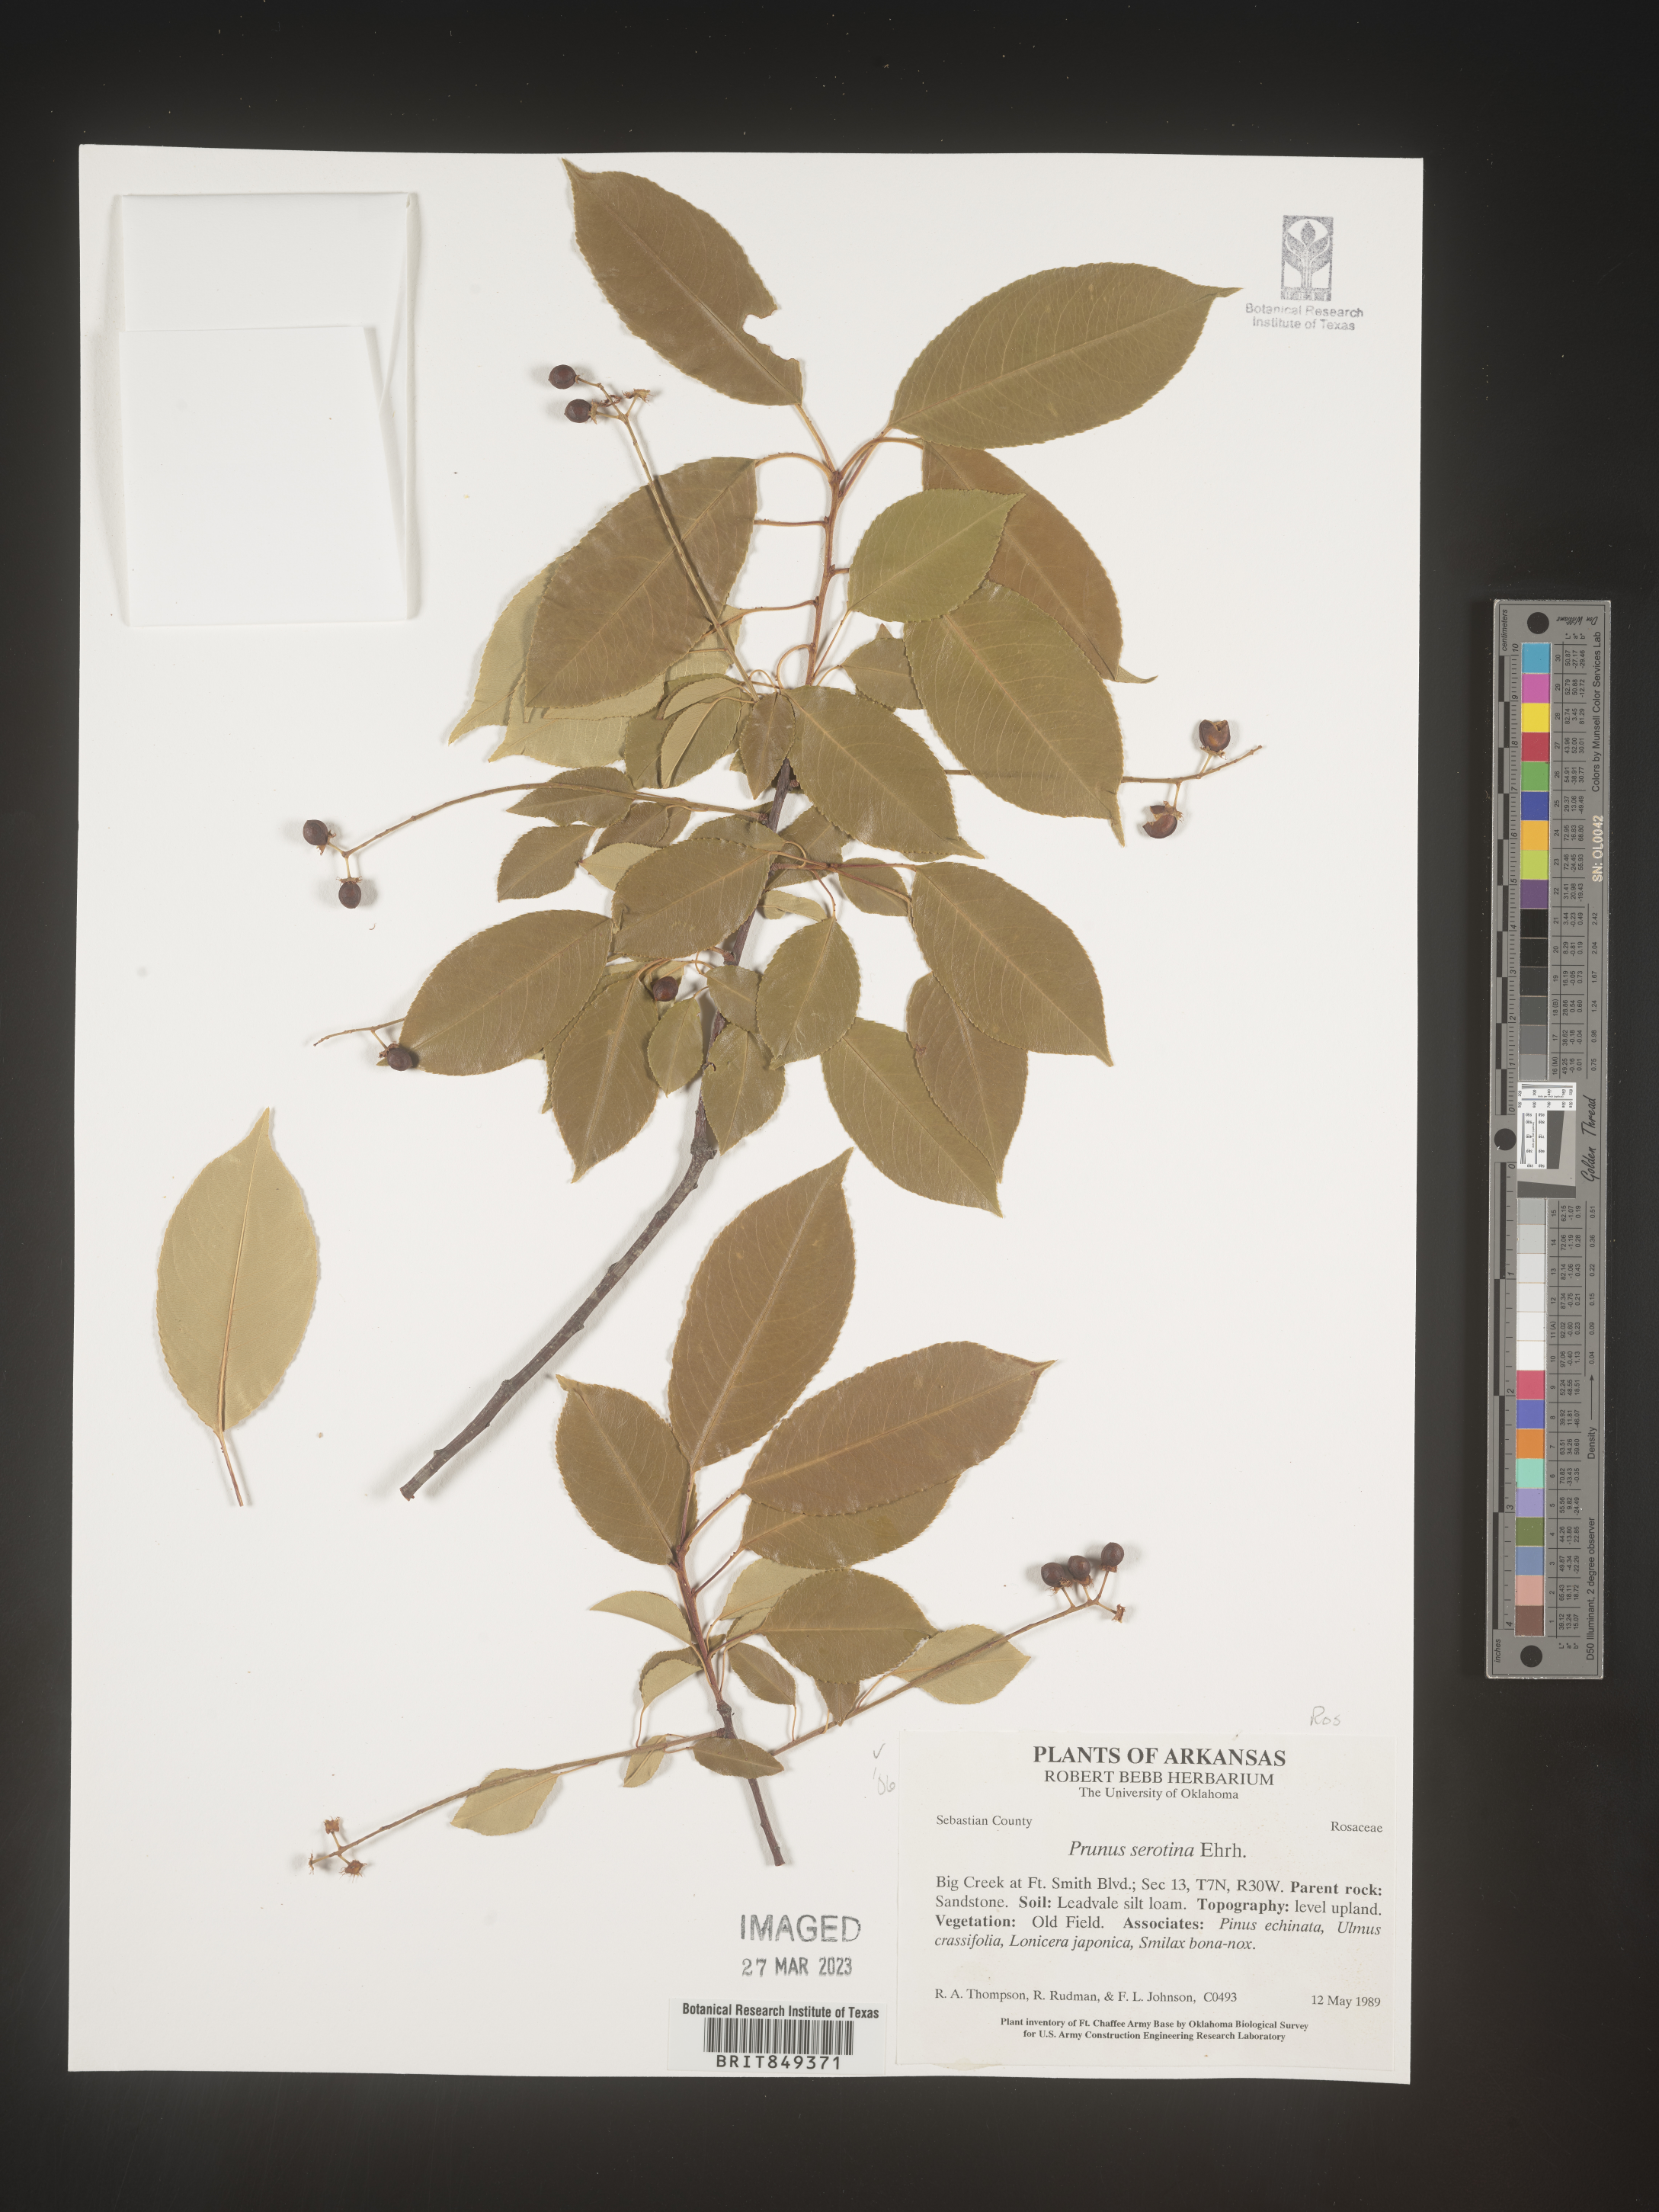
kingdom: Plantae
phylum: Tracheophyta
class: Magnoliopsida
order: Rosales
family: Rosaceae
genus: Prunus
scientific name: Prunus serotina
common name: Black cherry
